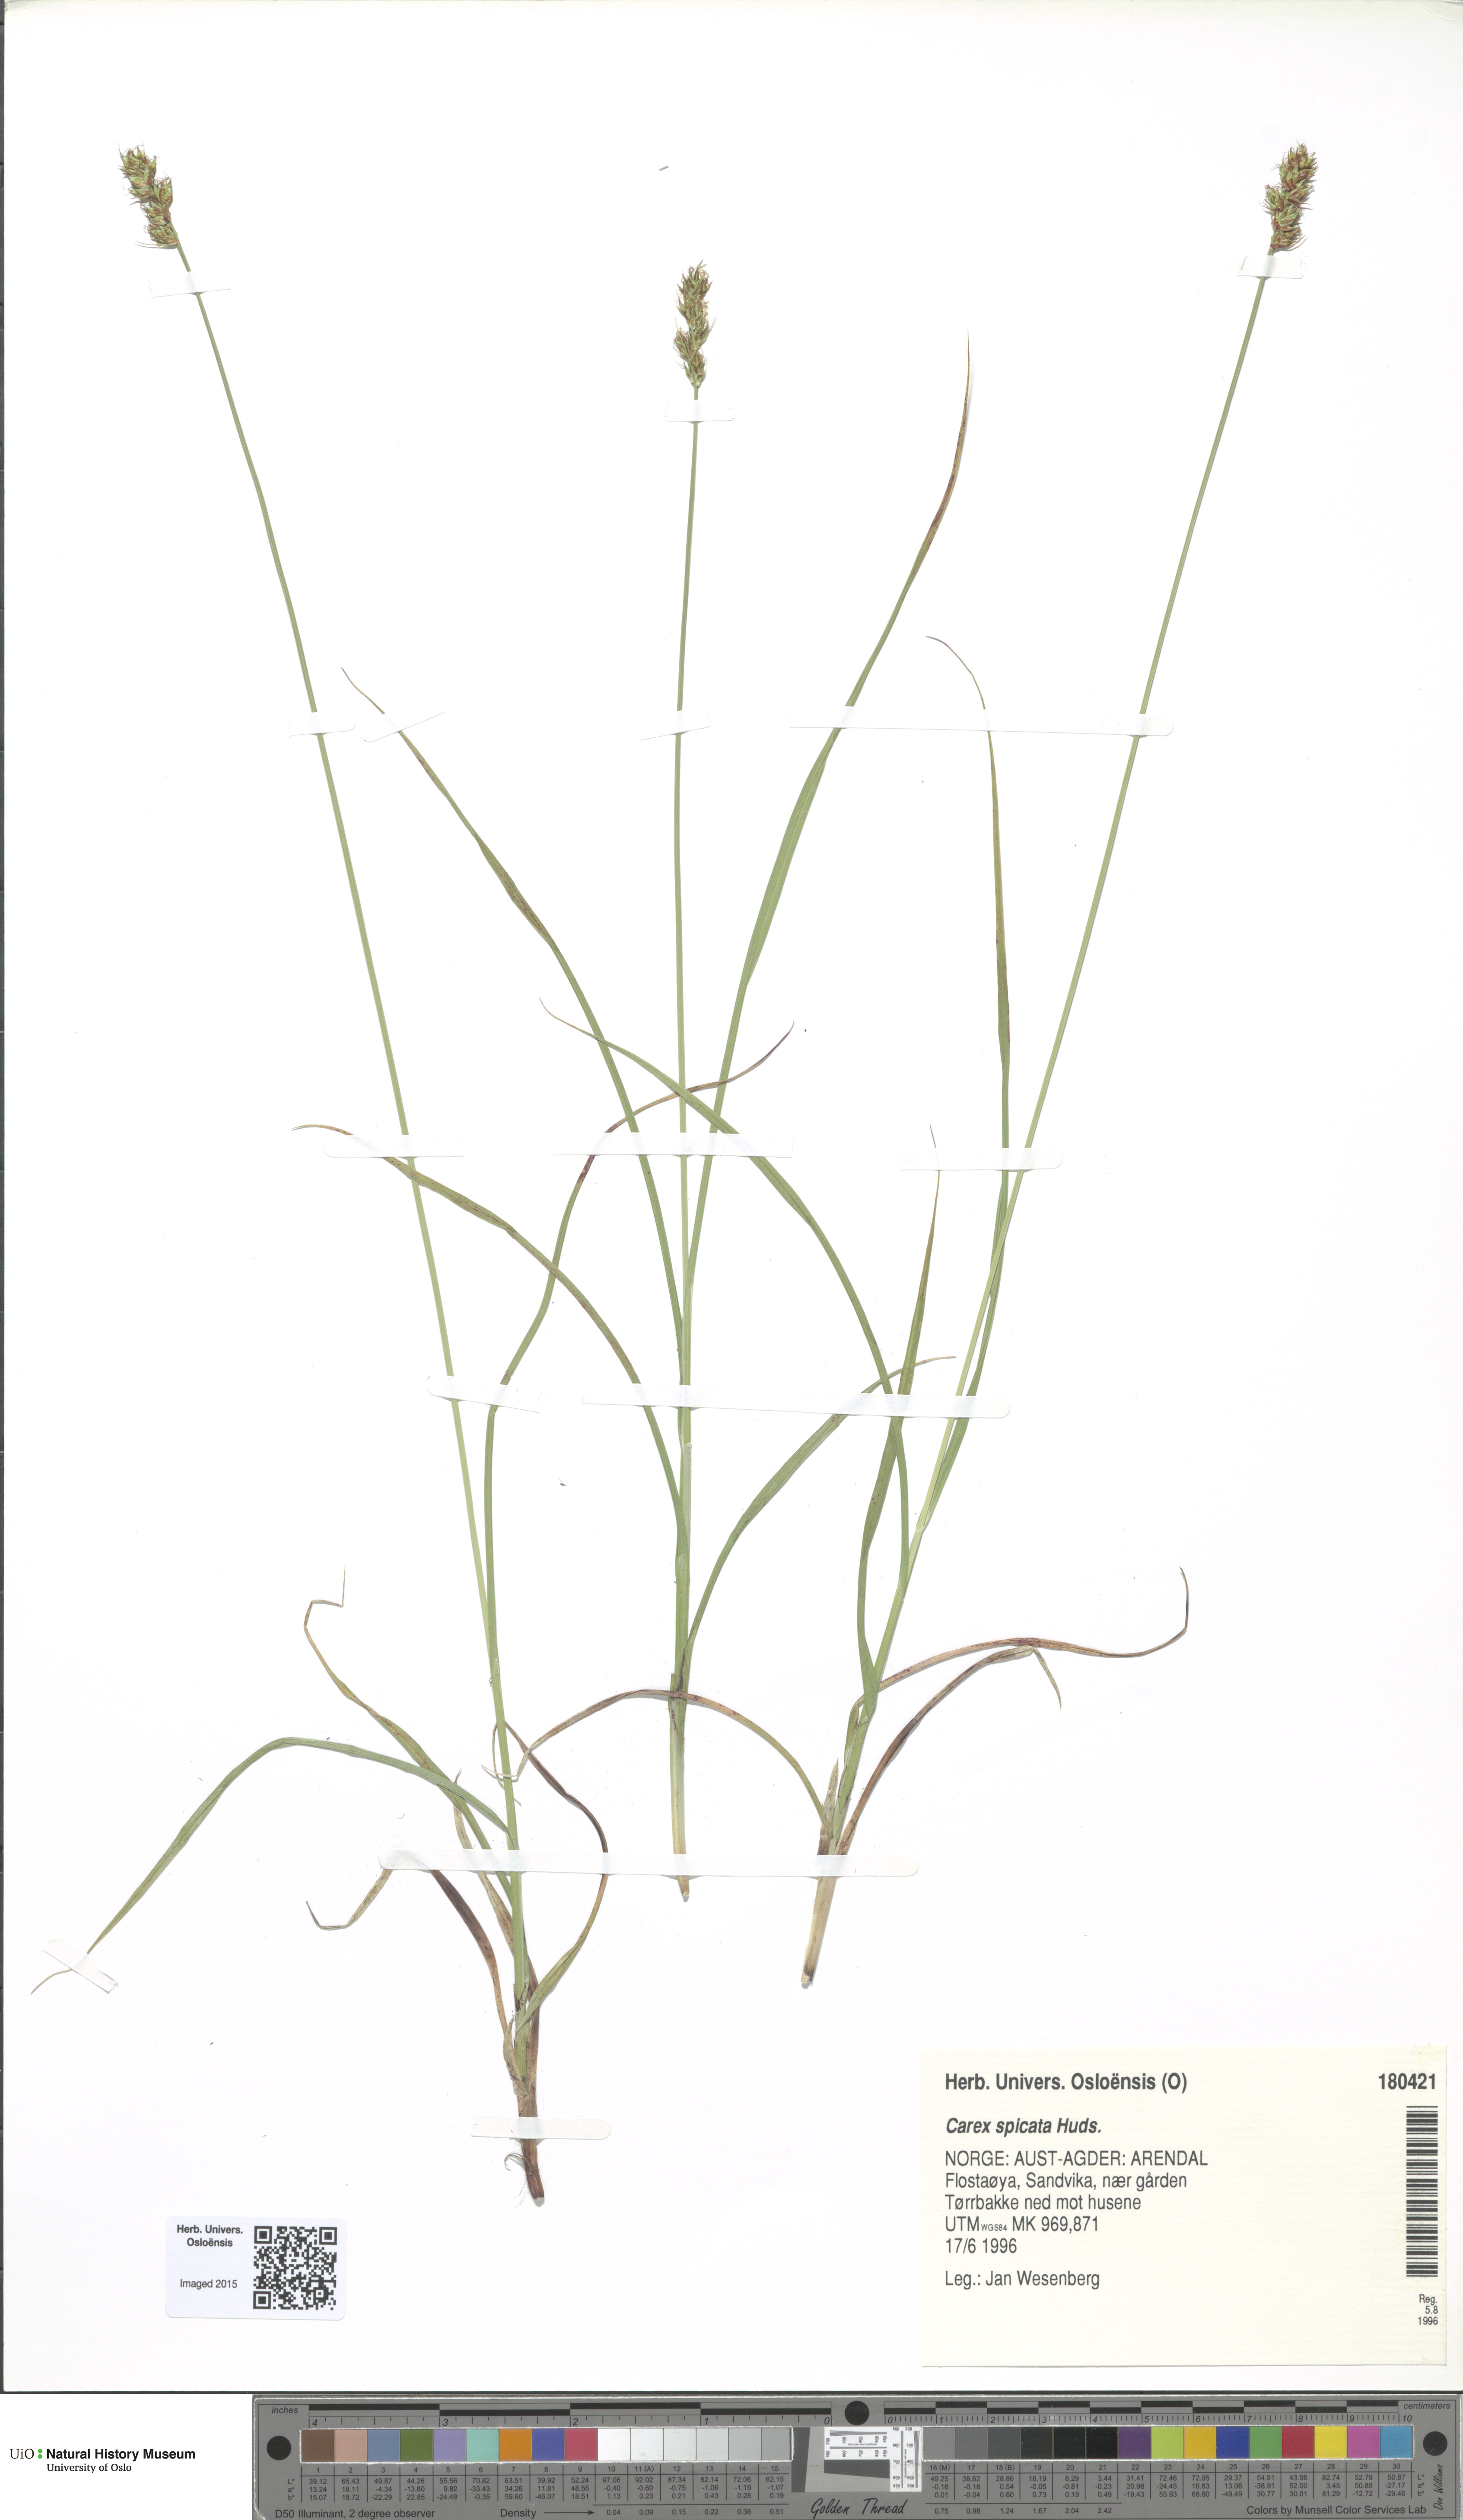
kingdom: Plantae
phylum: Tracheophyta
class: Liliopsida
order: Poales
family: Cyperaceae
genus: Carex
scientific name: Carex spicata
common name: Spiked sedge
